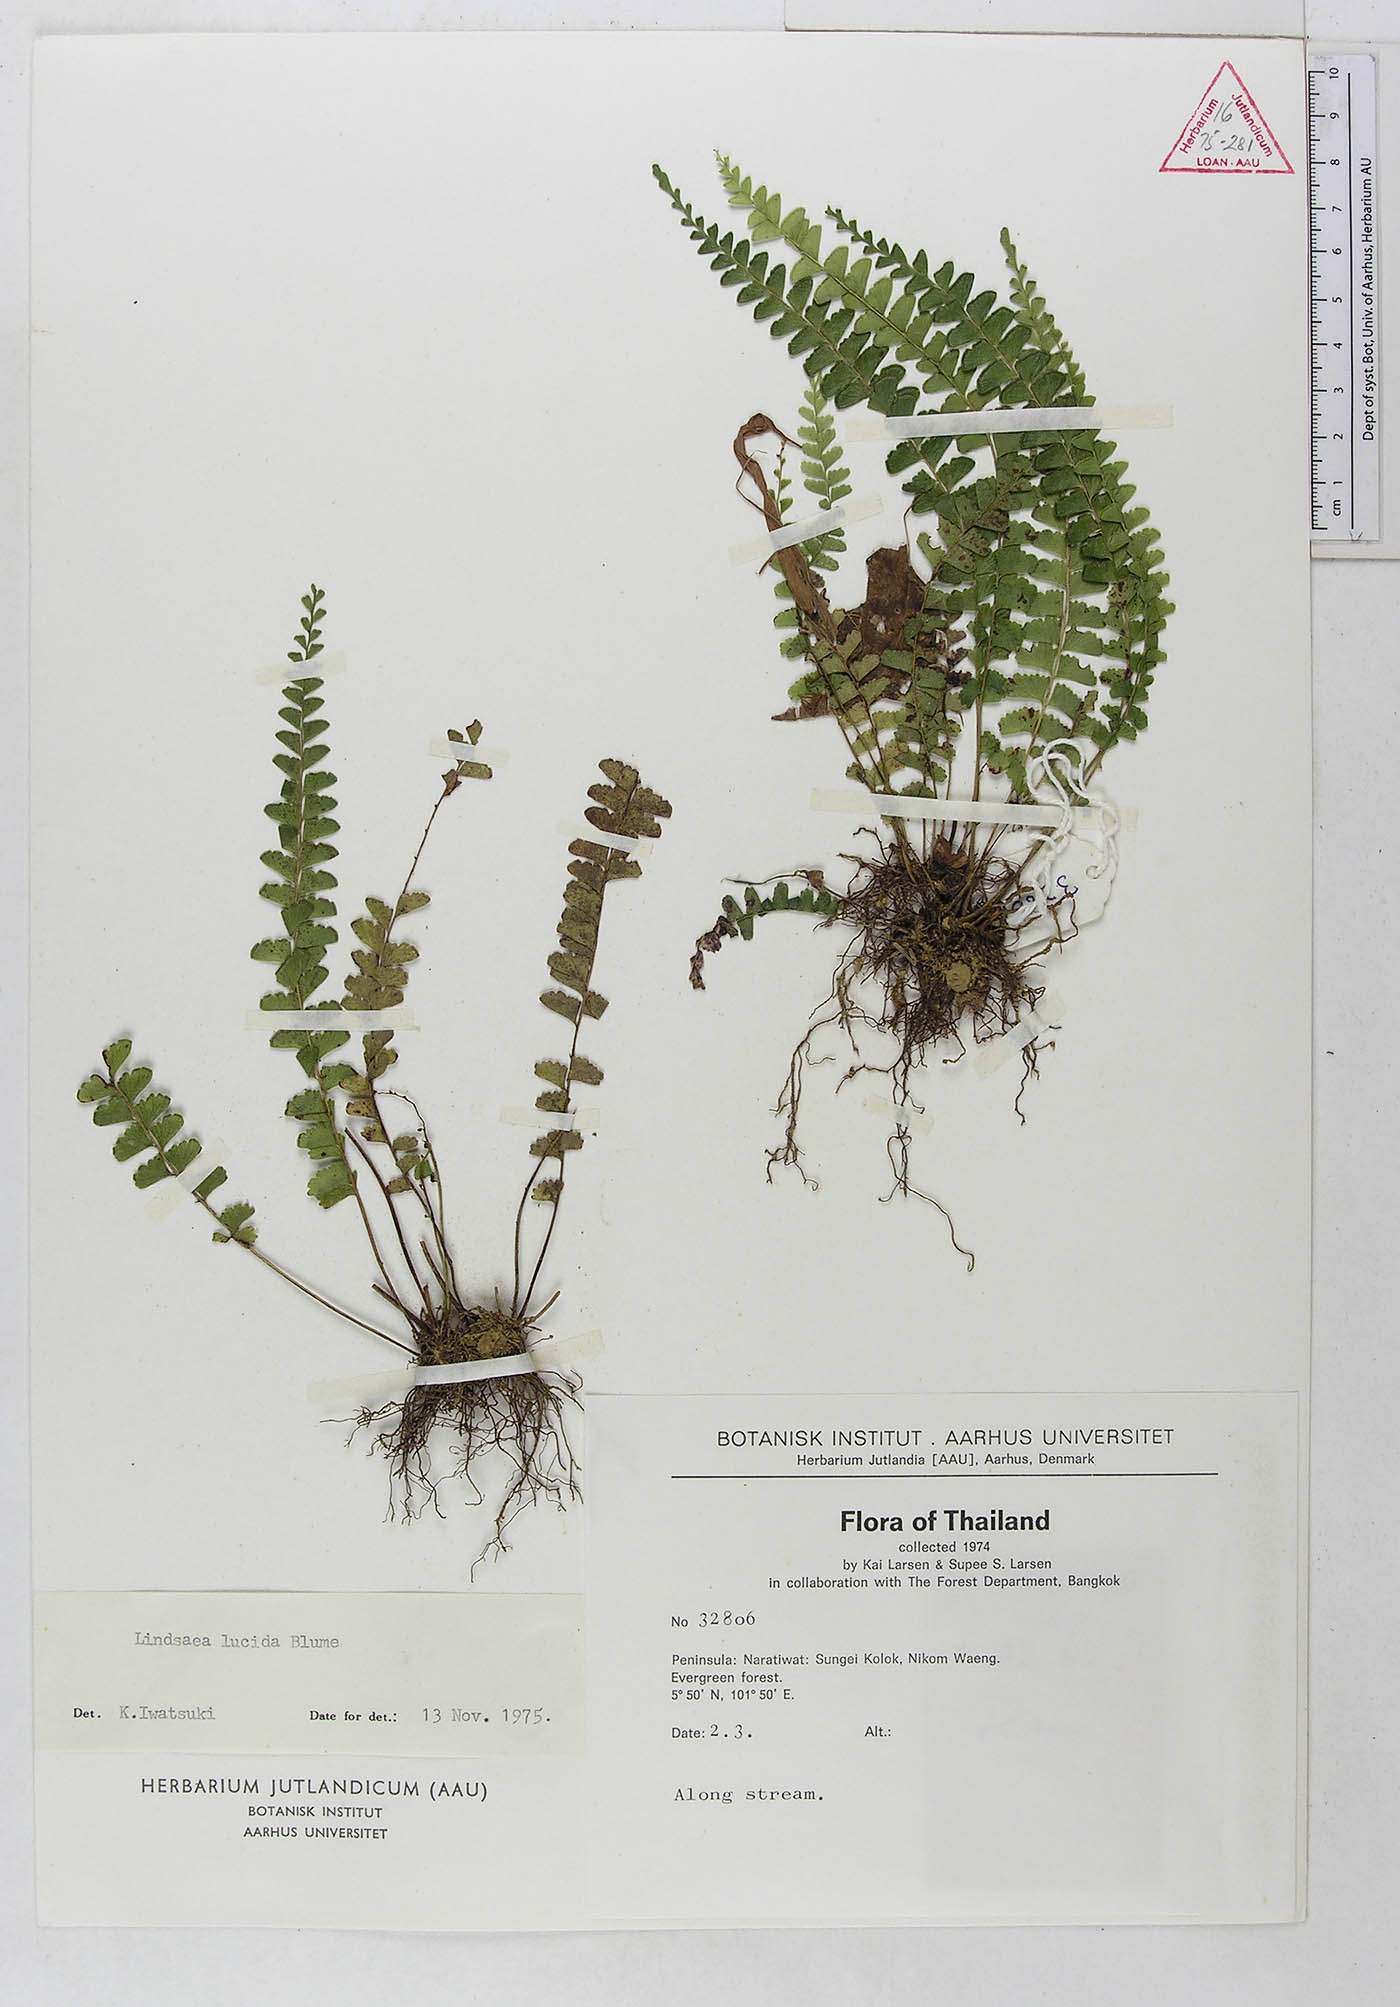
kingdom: Plantae
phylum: Tracheophyta
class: Polypodiopsida
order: Polypodiales
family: Lindsaeaceae
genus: Lindsaea
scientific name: Lindsaea lucida
